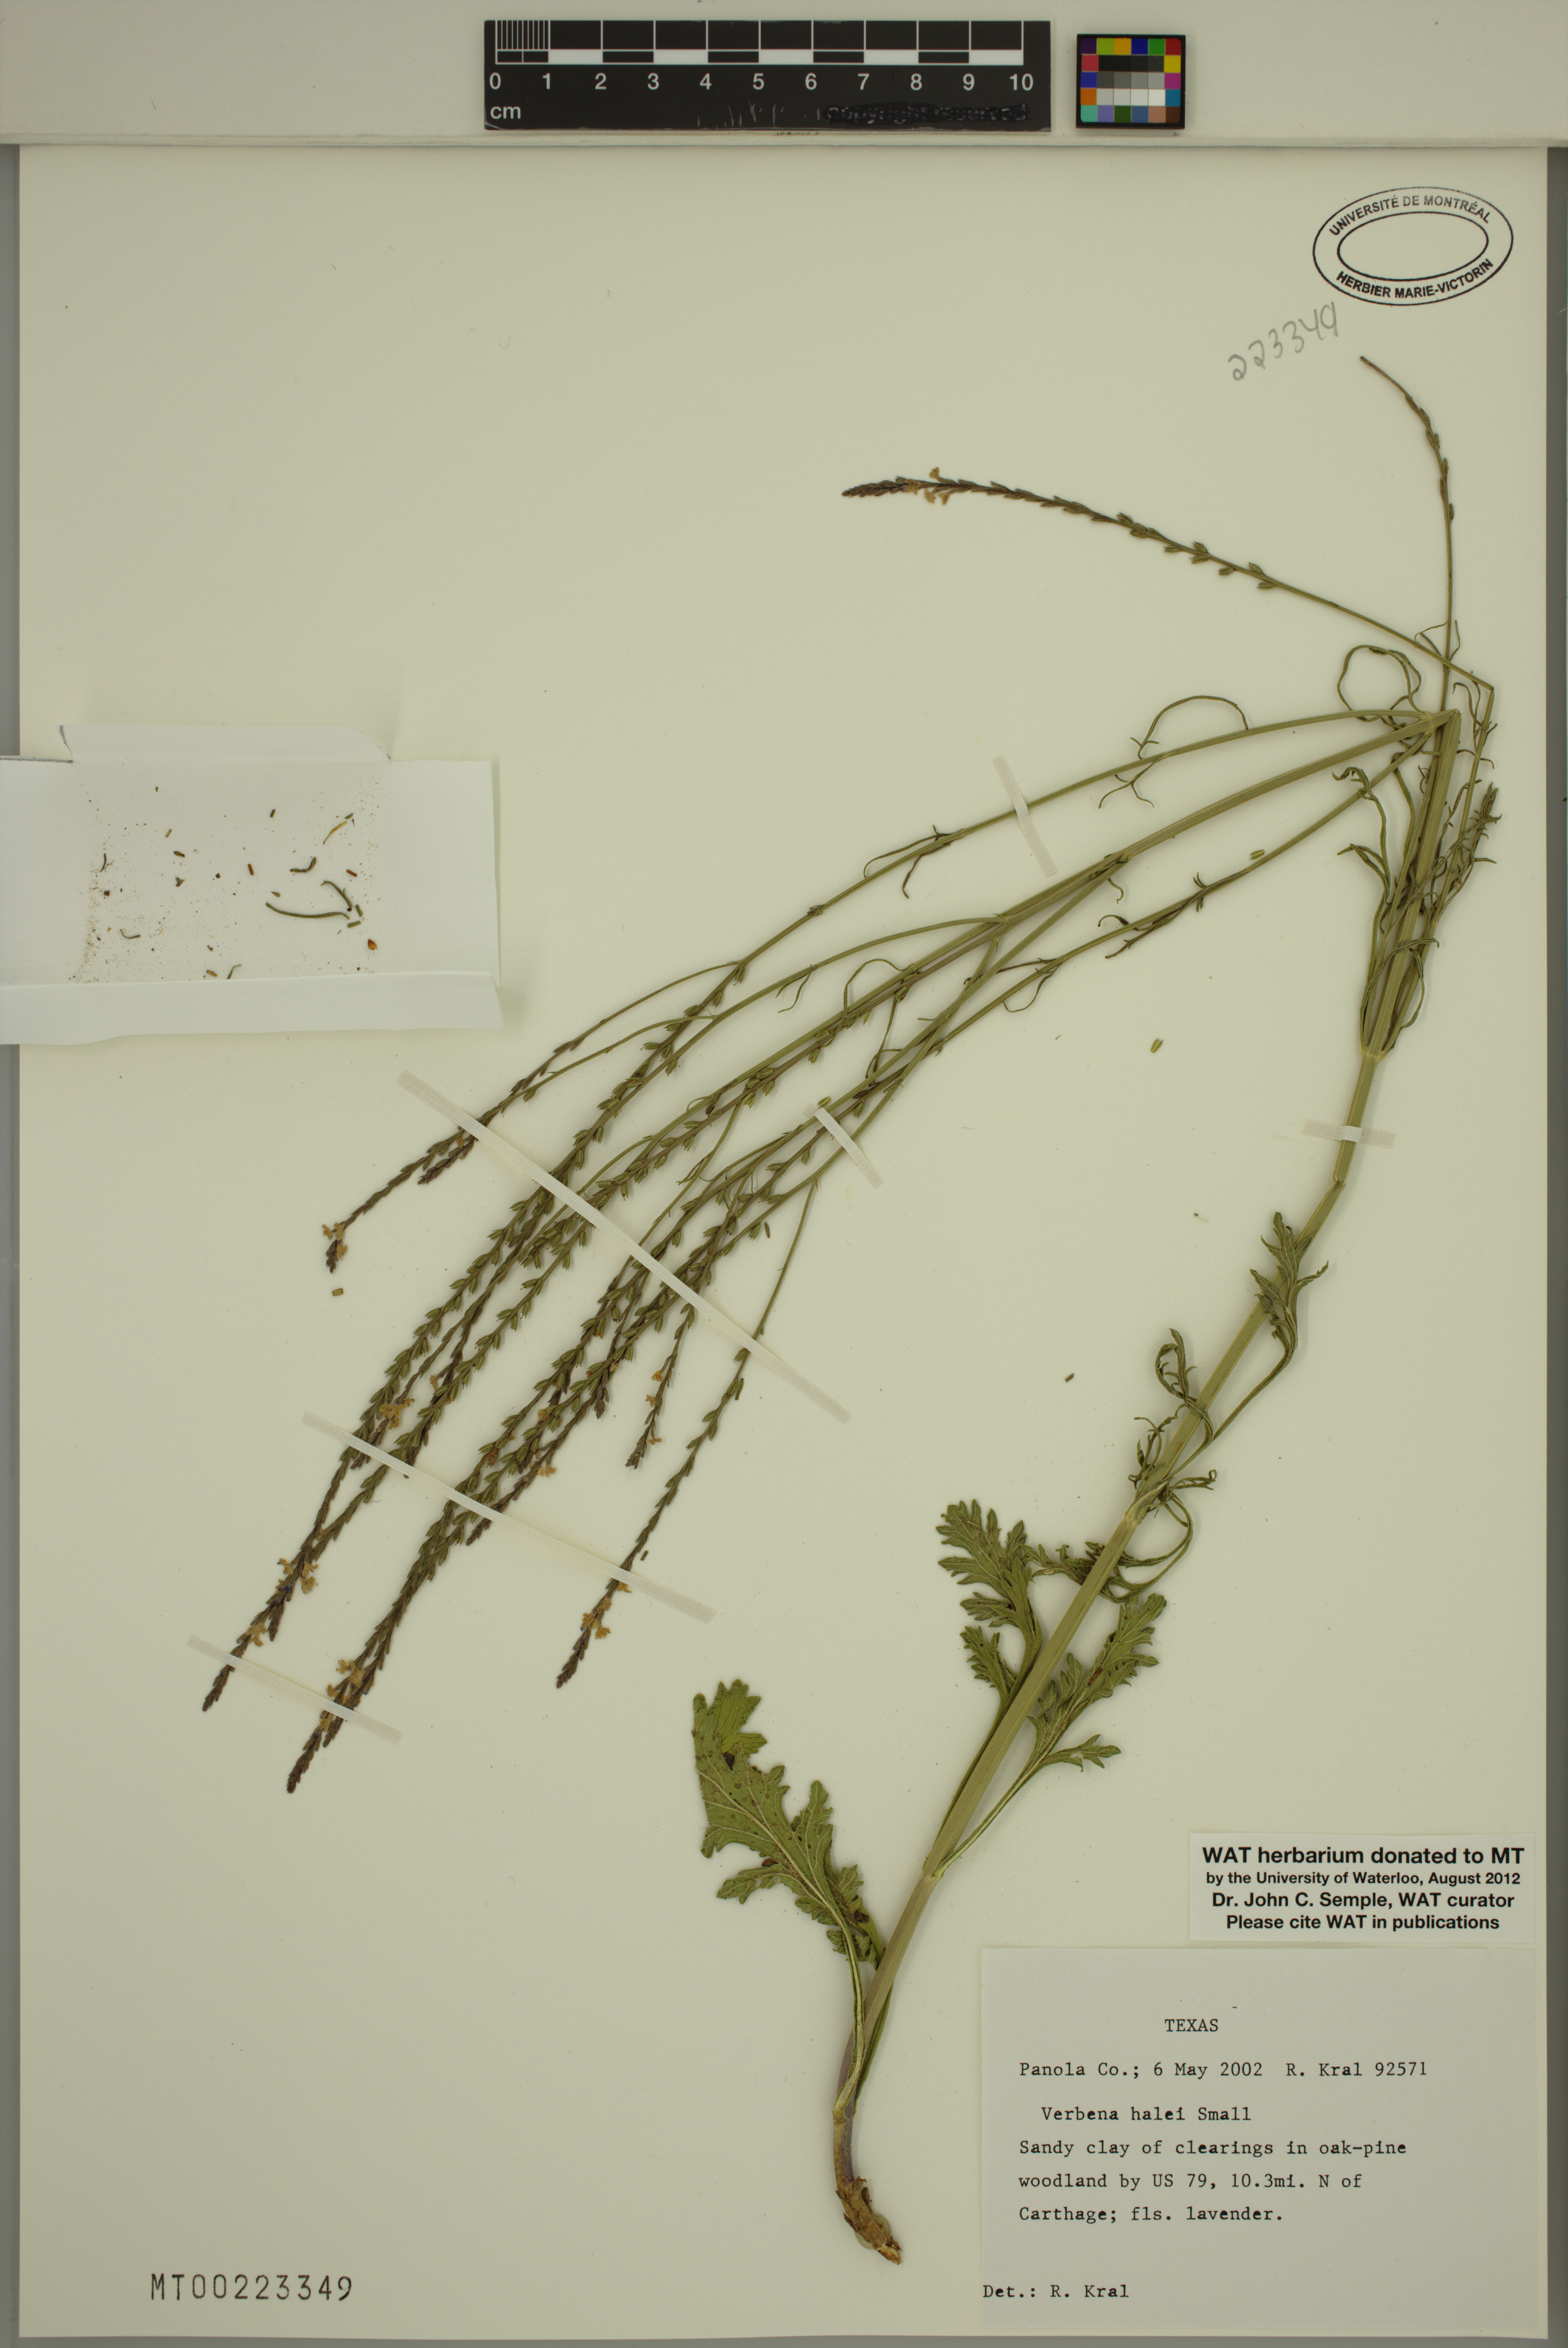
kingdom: Plantae
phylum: Tracheophyta
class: Magnoliopsida
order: Lamiales
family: Verbenaceae
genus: Verbena
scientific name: Verbena halei
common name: Texas vervain
